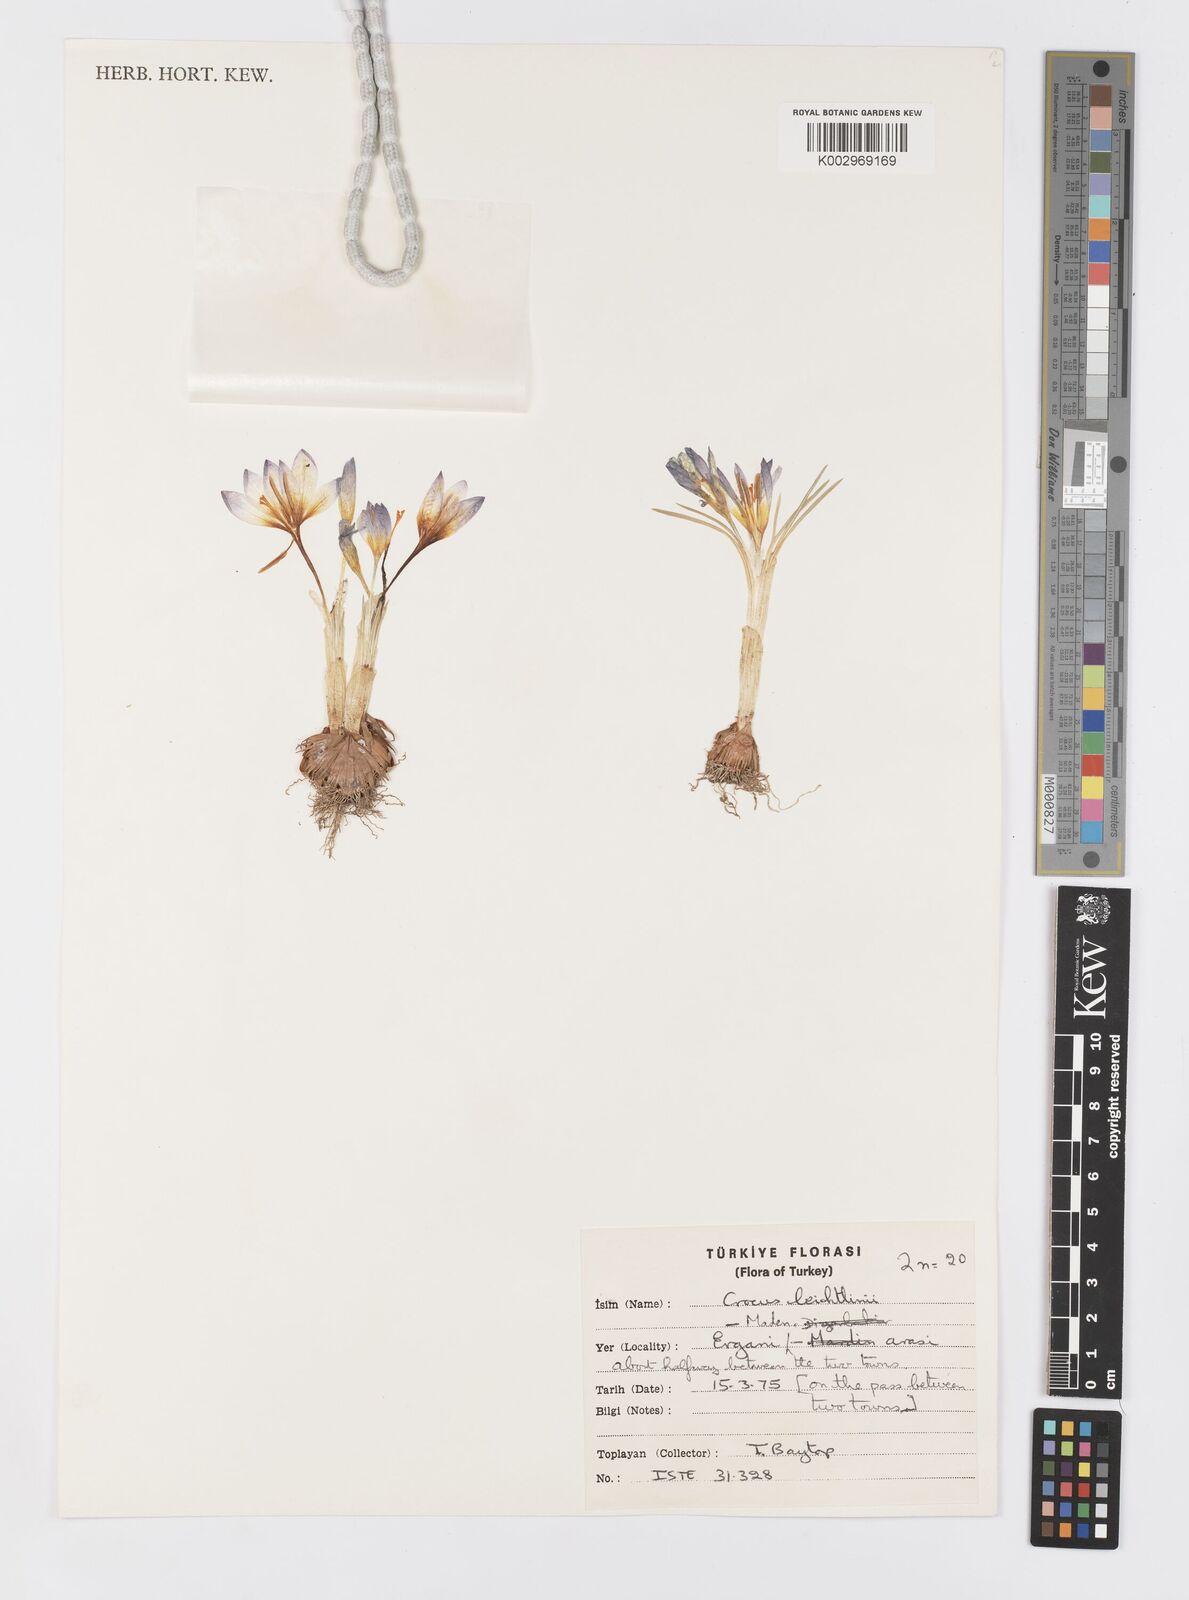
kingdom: Plantae
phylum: Tracheophyta
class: Liliopsida
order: Asparagales
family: Iridaceae
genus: Crocus
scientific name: Crocus leichtlinii
